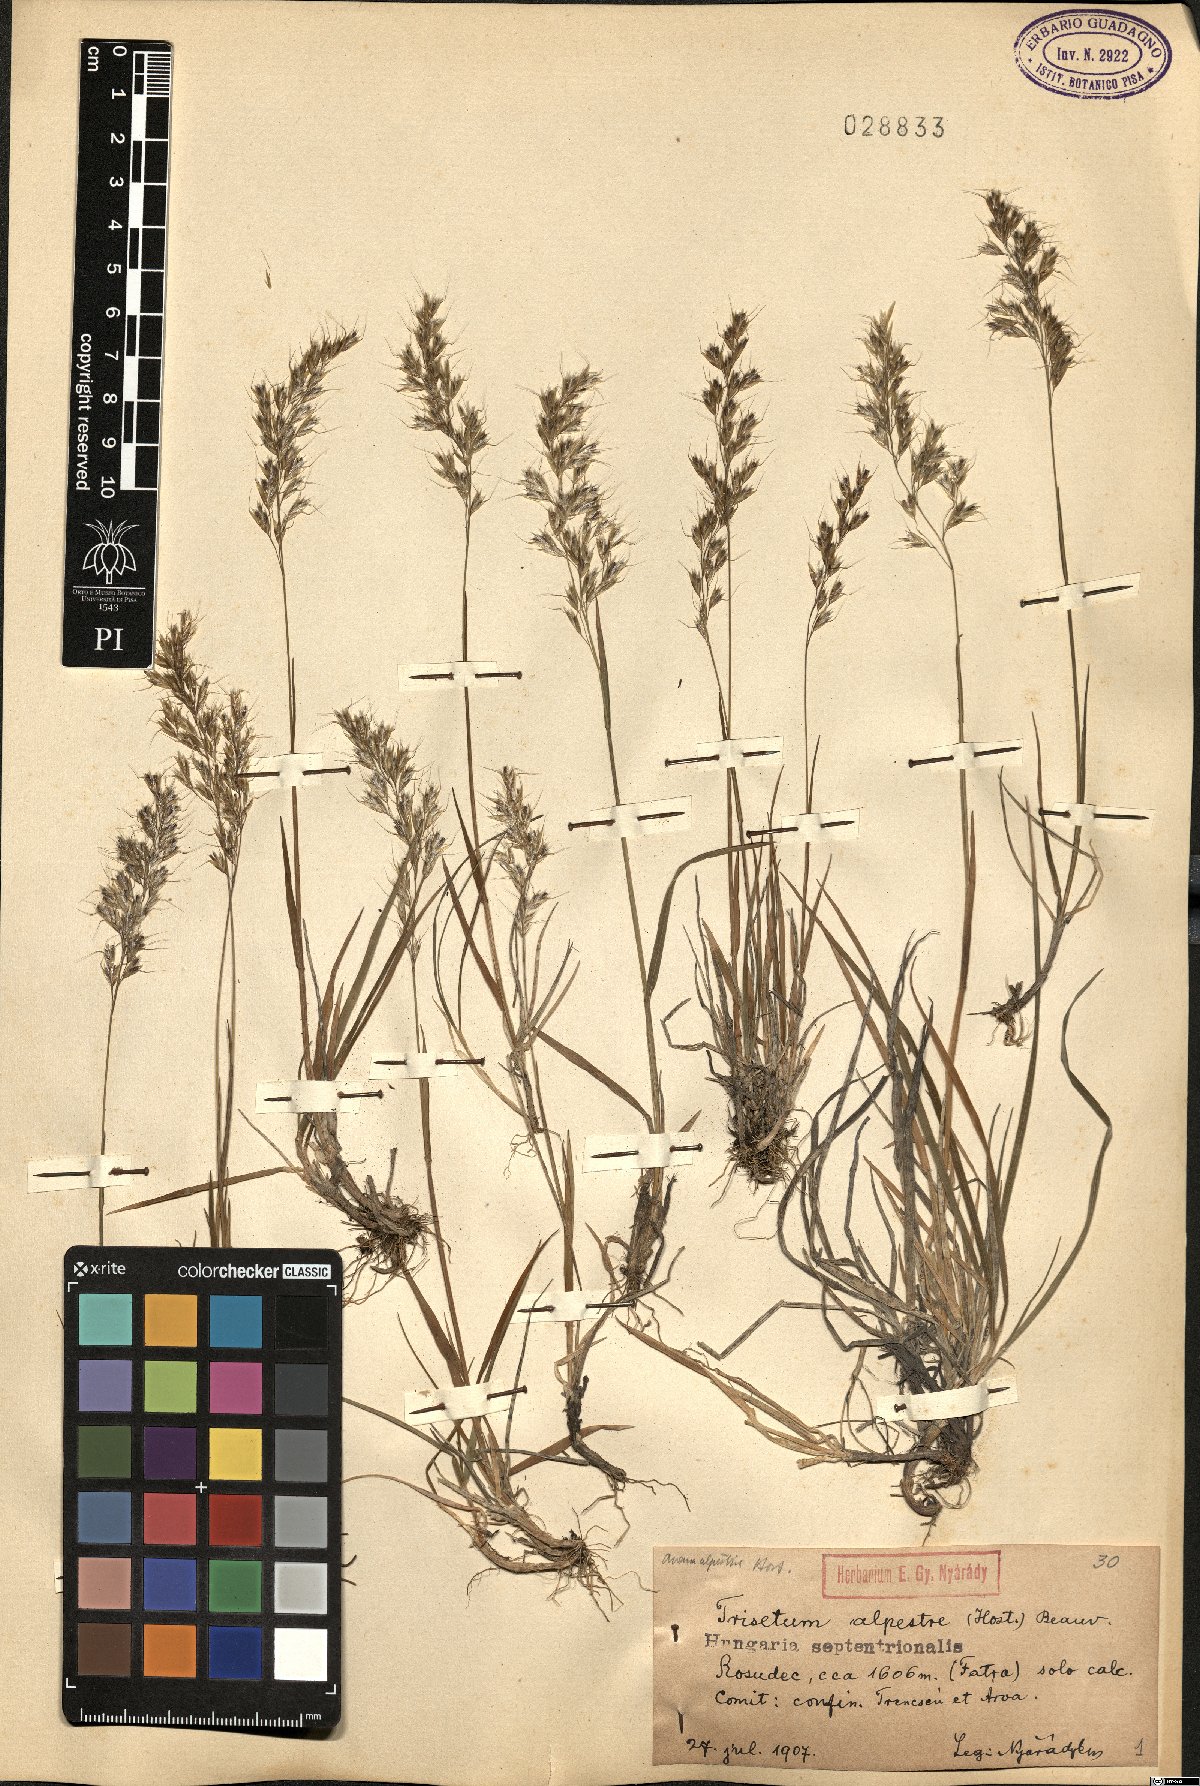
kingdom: Plantae
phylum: Tracheophyta
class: Liliopsida
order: Poales
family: Poaceae
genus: Trisetum
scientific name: Trisetum alpestre
